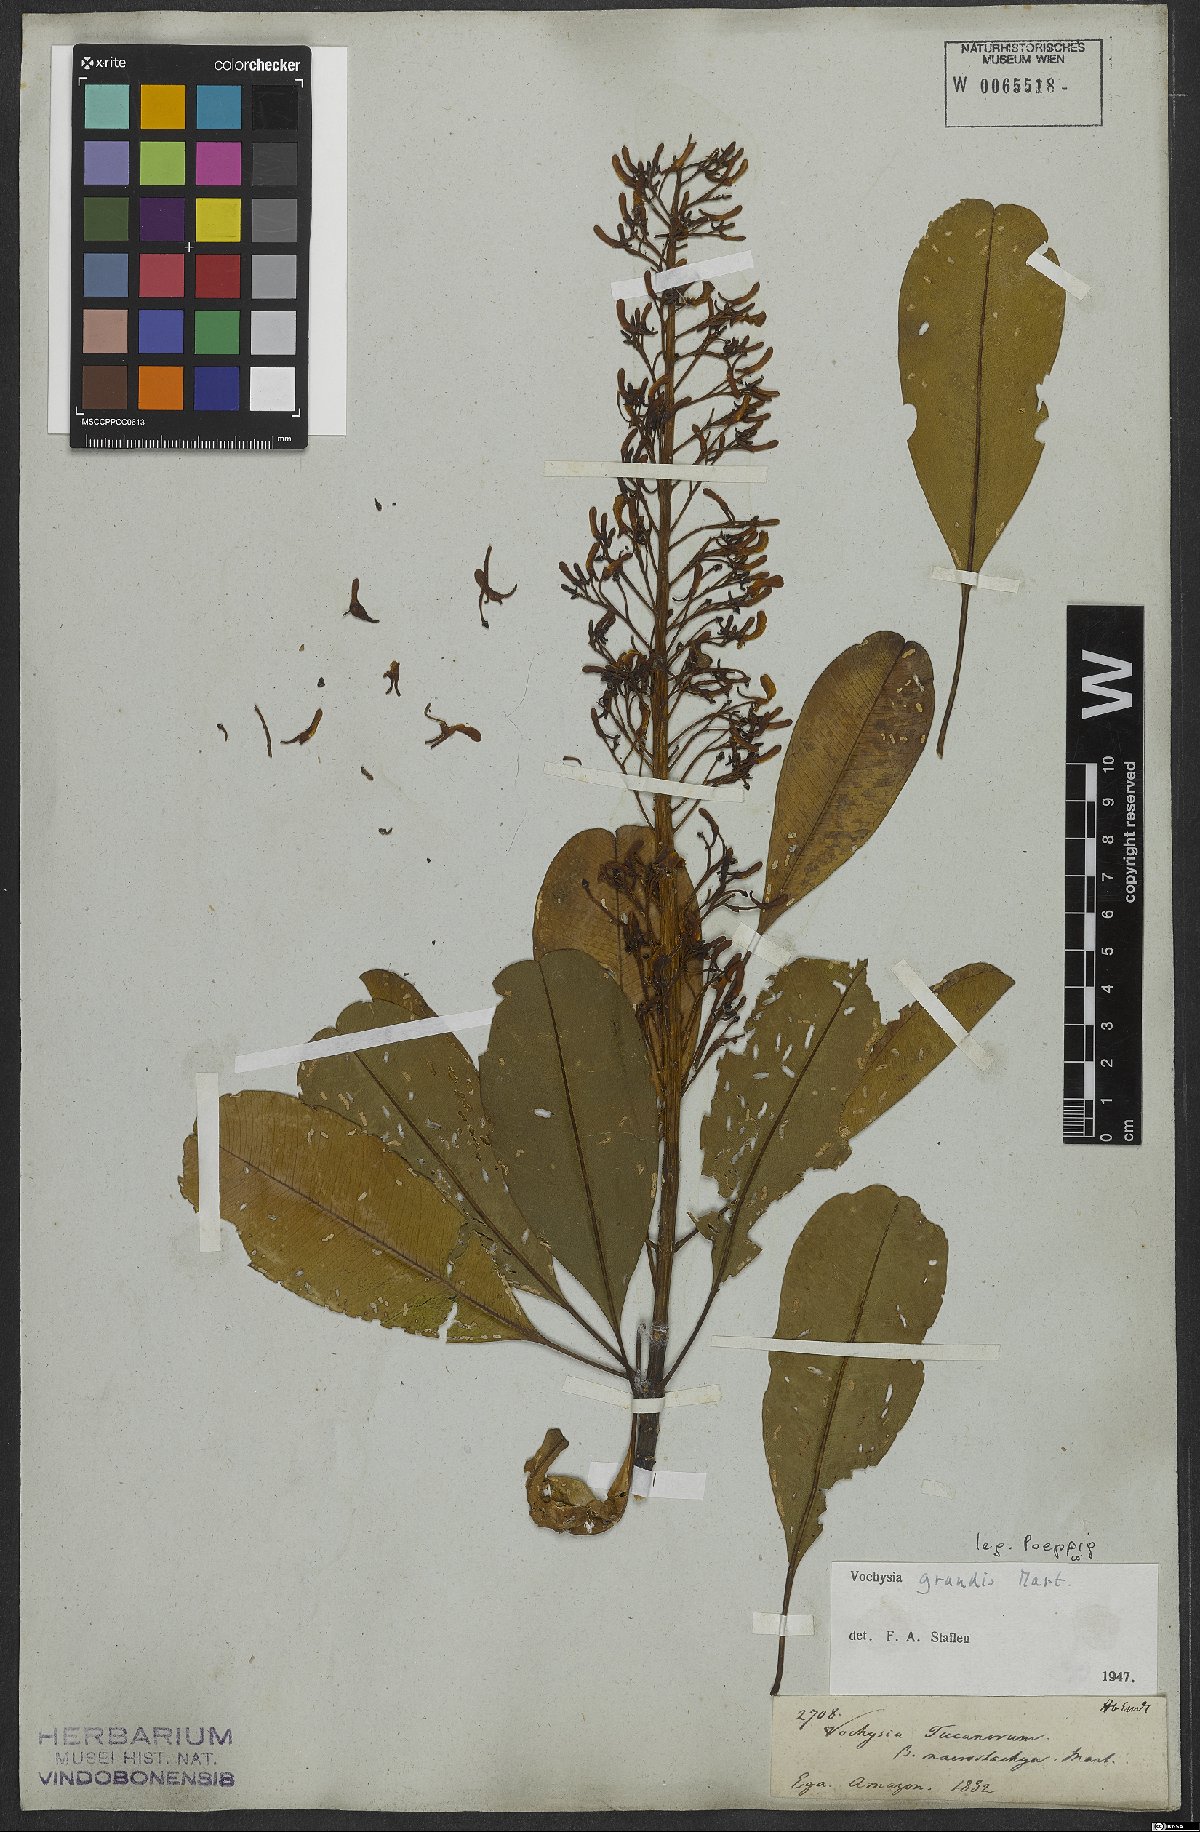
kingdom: Plantae
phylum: Tracheophyta
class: Magnoliopsida
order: Myrtales
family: Vochysiaceae
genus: Vochysia
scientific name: Vochysia grandis
